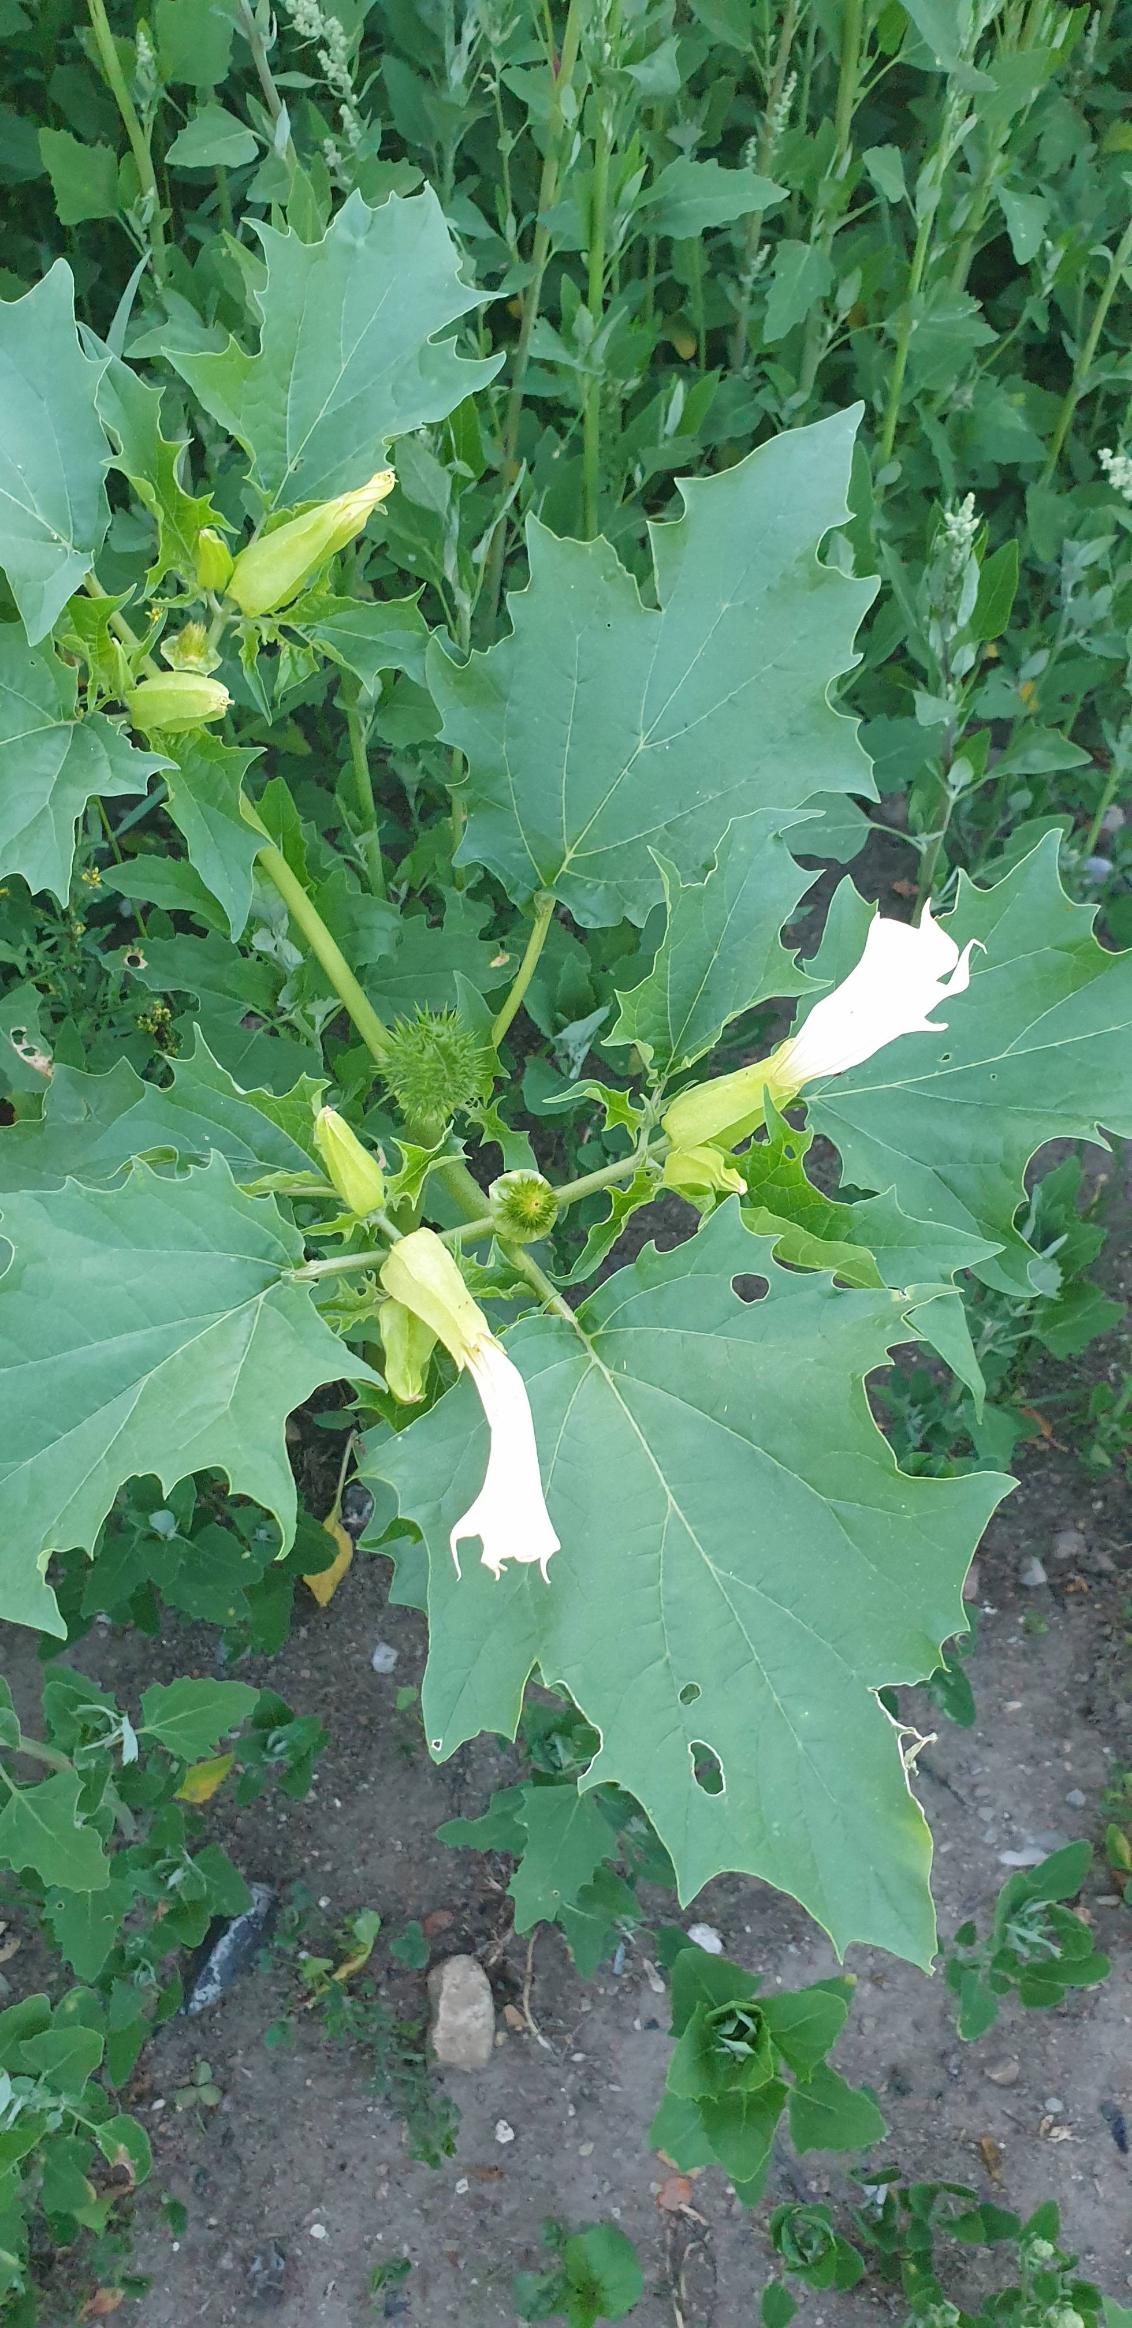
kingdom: Plantae
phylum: Tracheophyta
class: Magnoliopsida
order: Solanales
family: Solanaceae
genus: Datura
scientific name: Datura stramonium
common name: Pigæble
